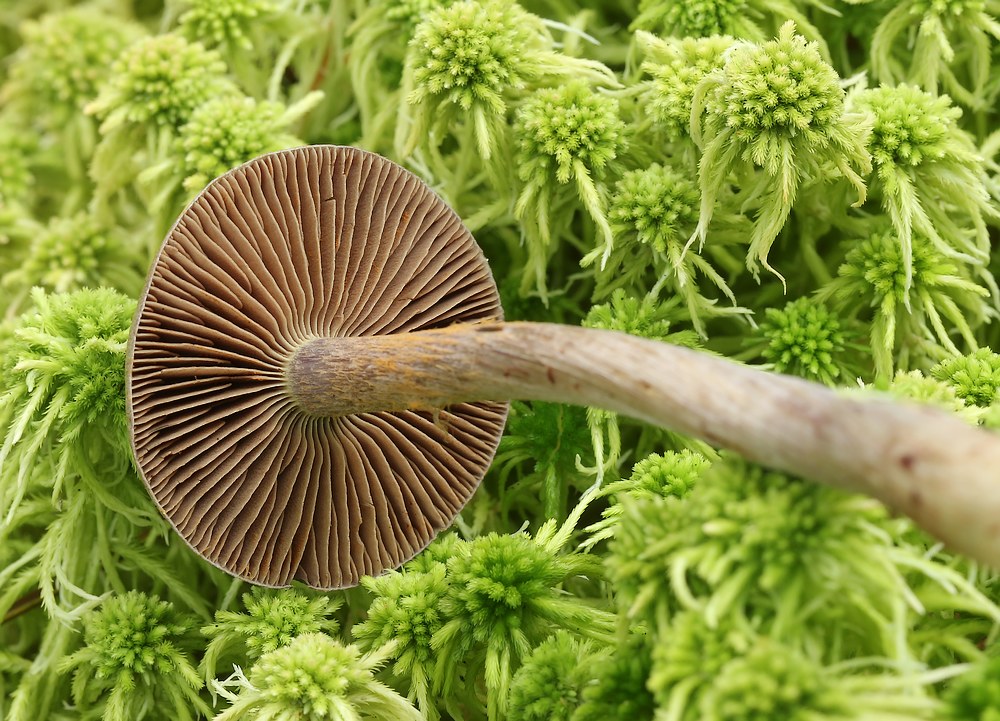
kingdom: Fungi
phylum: Basidiomycota
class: Agaricomycetes
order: Agaricales
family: Cortinariaceae
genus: Cortinarius
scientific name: Cortinarius
